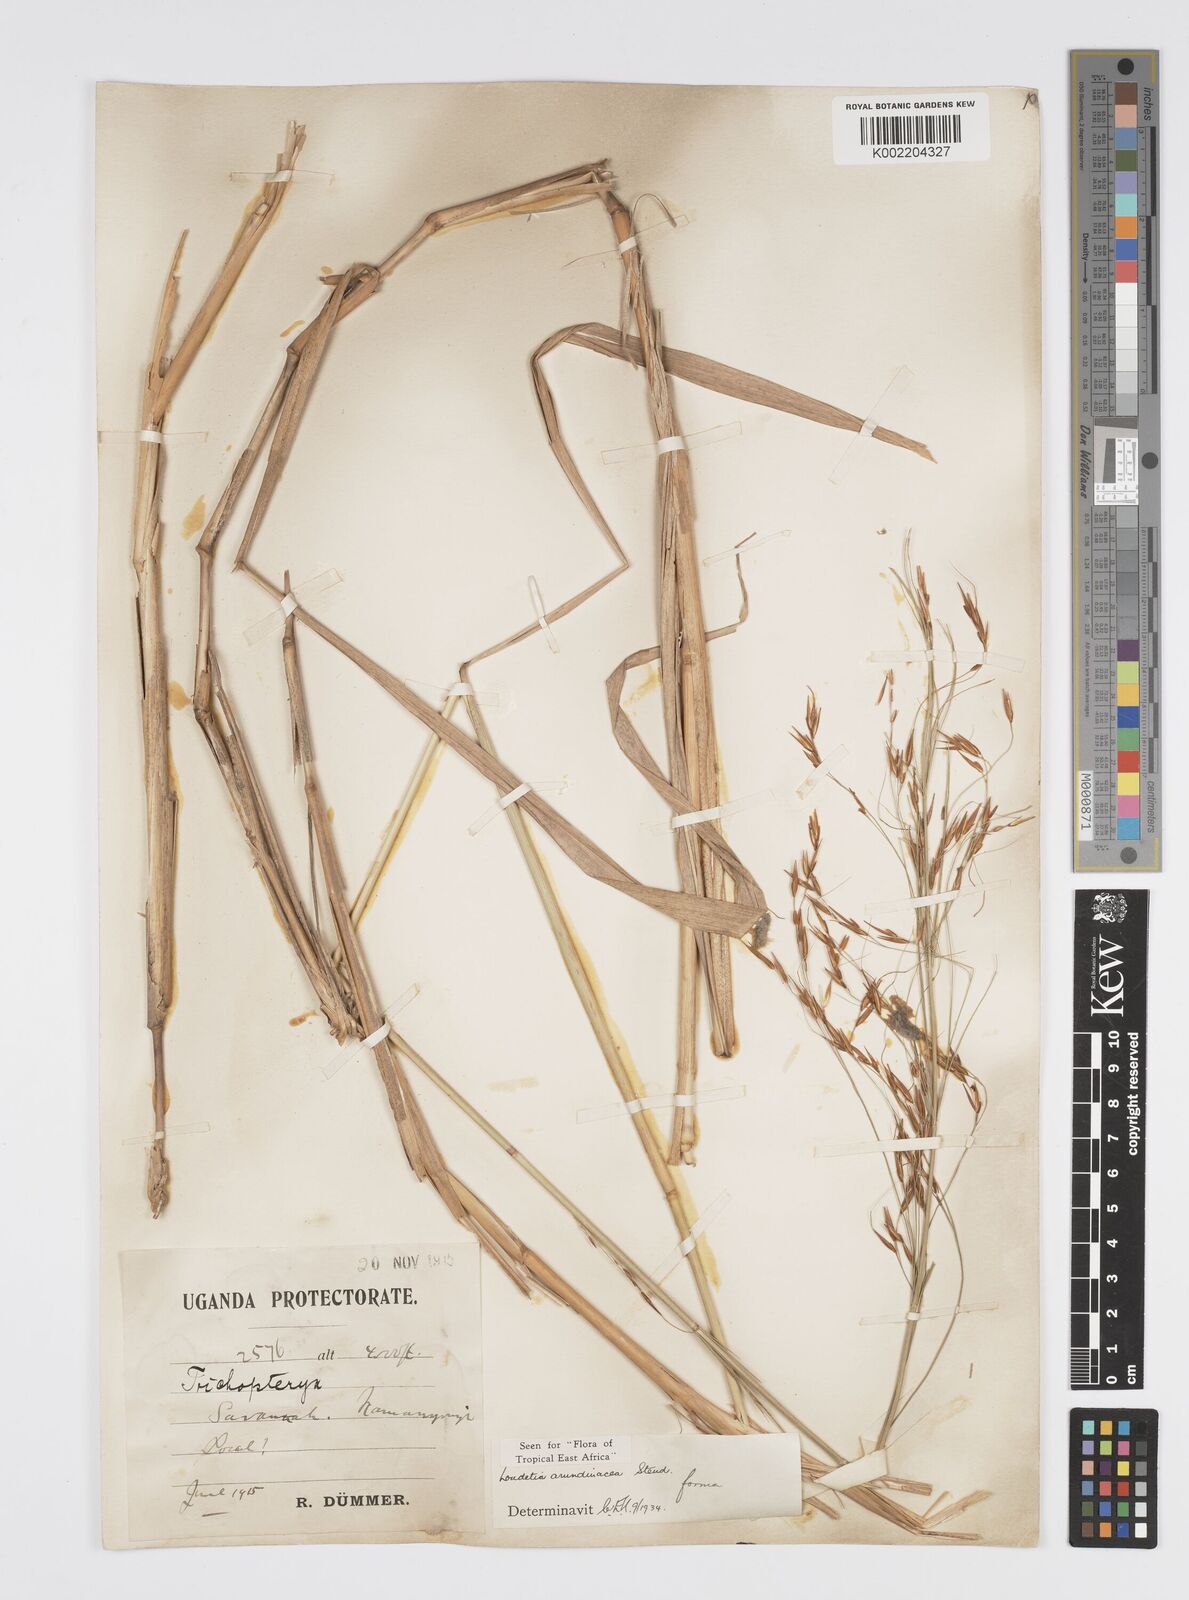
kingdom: Plantae
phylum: Tracheophyta
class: Liliopsida
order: Poales
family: Poaceae
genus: Loudetia
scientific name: Loudetia arundinacea
